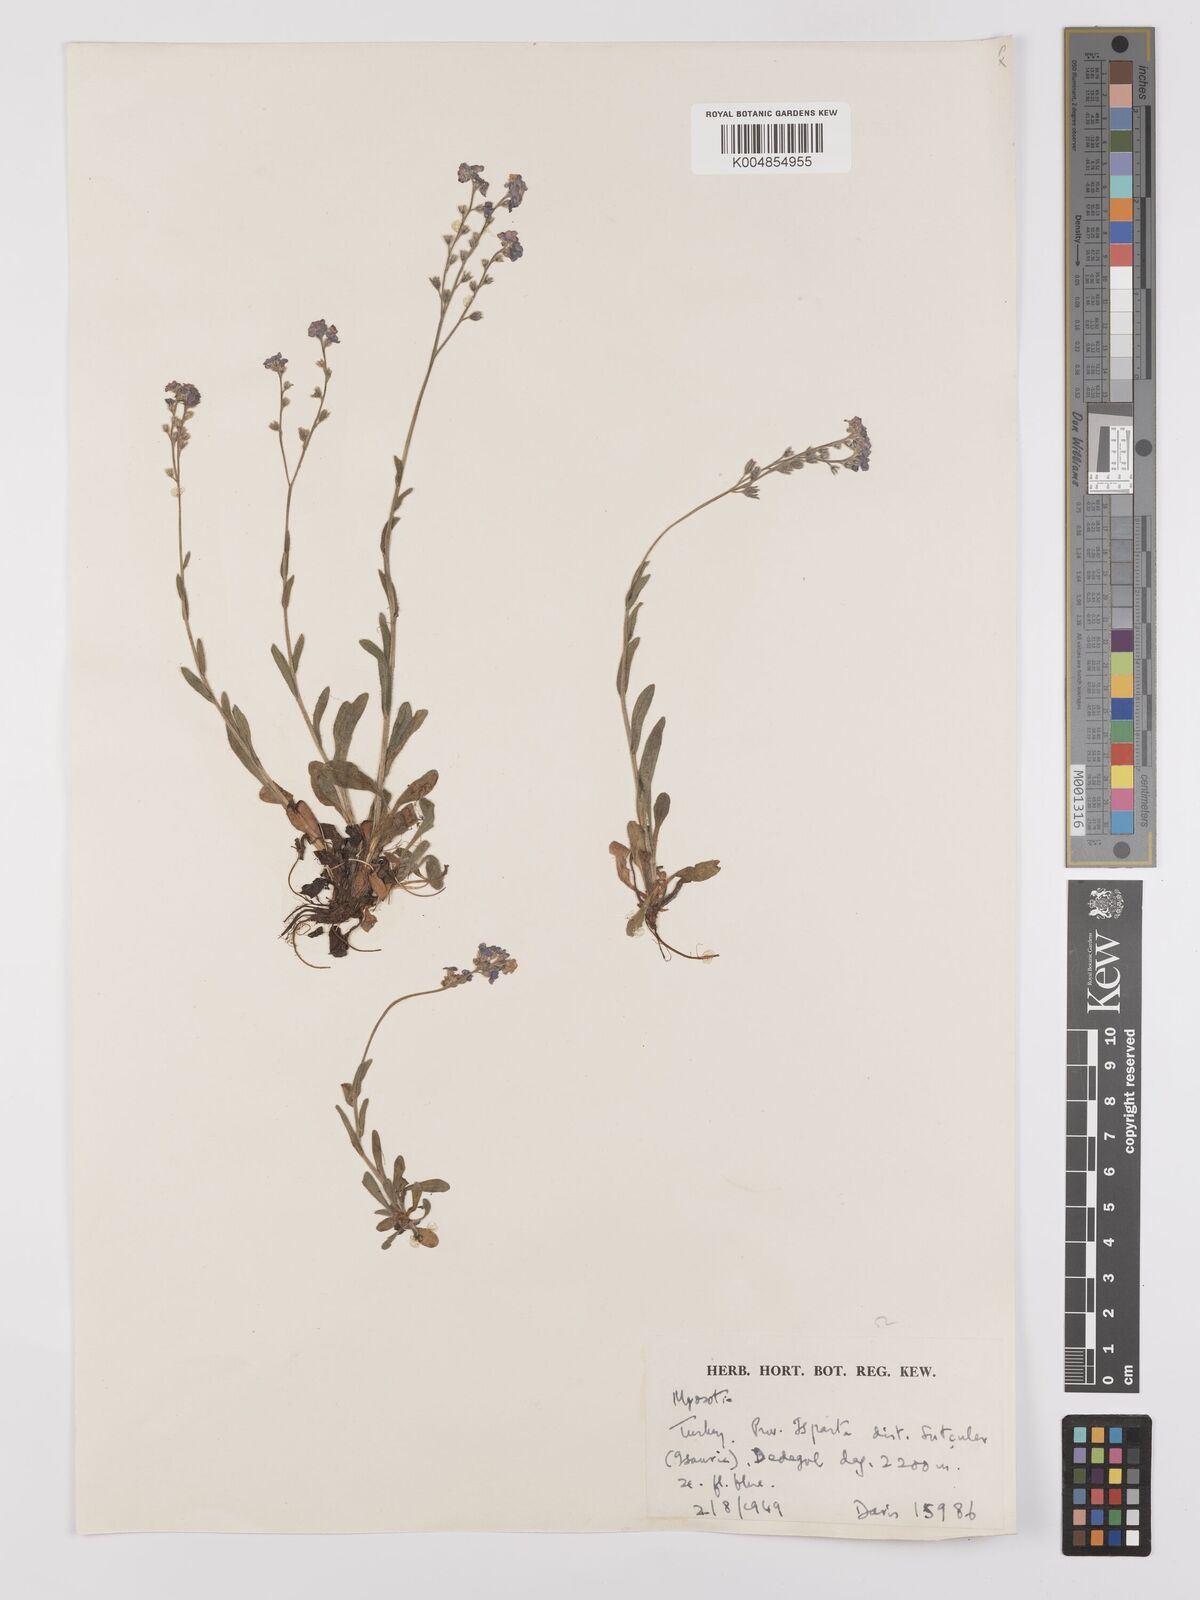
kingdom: Plantae
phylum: Tracheophyta
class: Magnoliopsida
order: Boraginales
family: Boraginaceae
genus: Myosotis
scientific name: Myosotis
